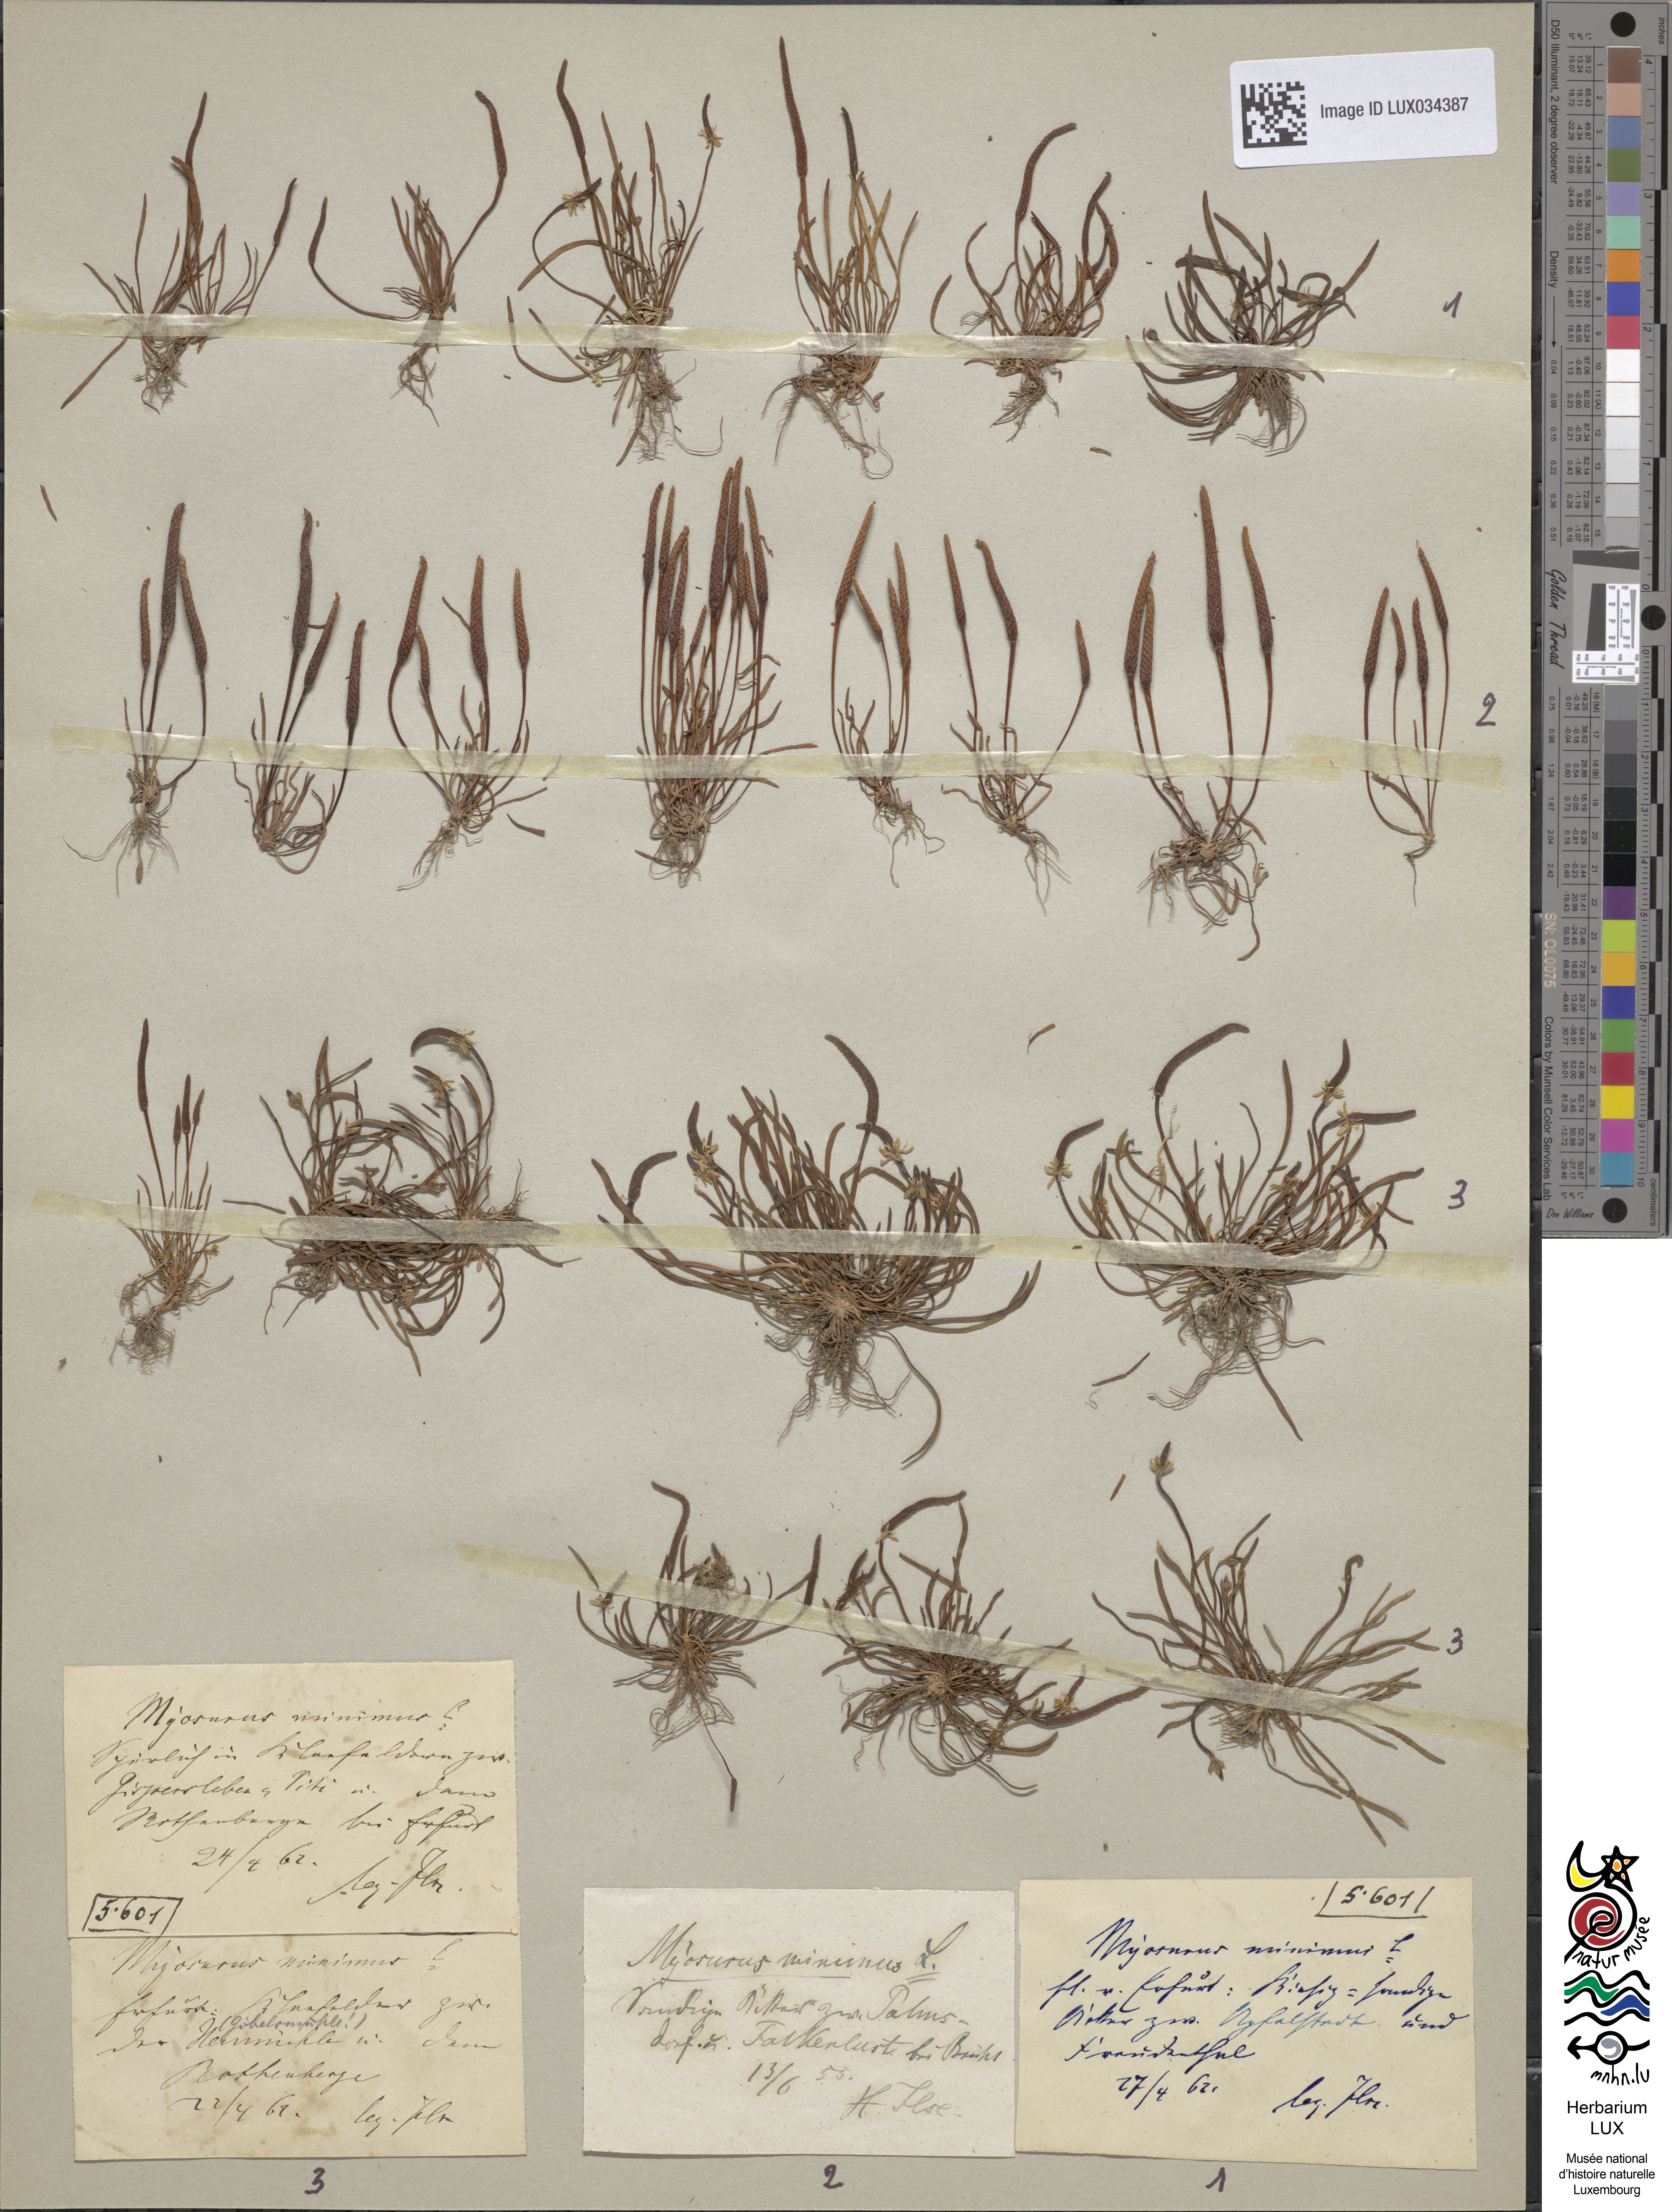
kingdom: Plantae
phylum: Tracheophyta
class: Magnoliopsida
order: Ranunculales
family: Ranunculaceae
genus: Myosurus
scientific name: Myosurus minimus
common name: Mousetail
